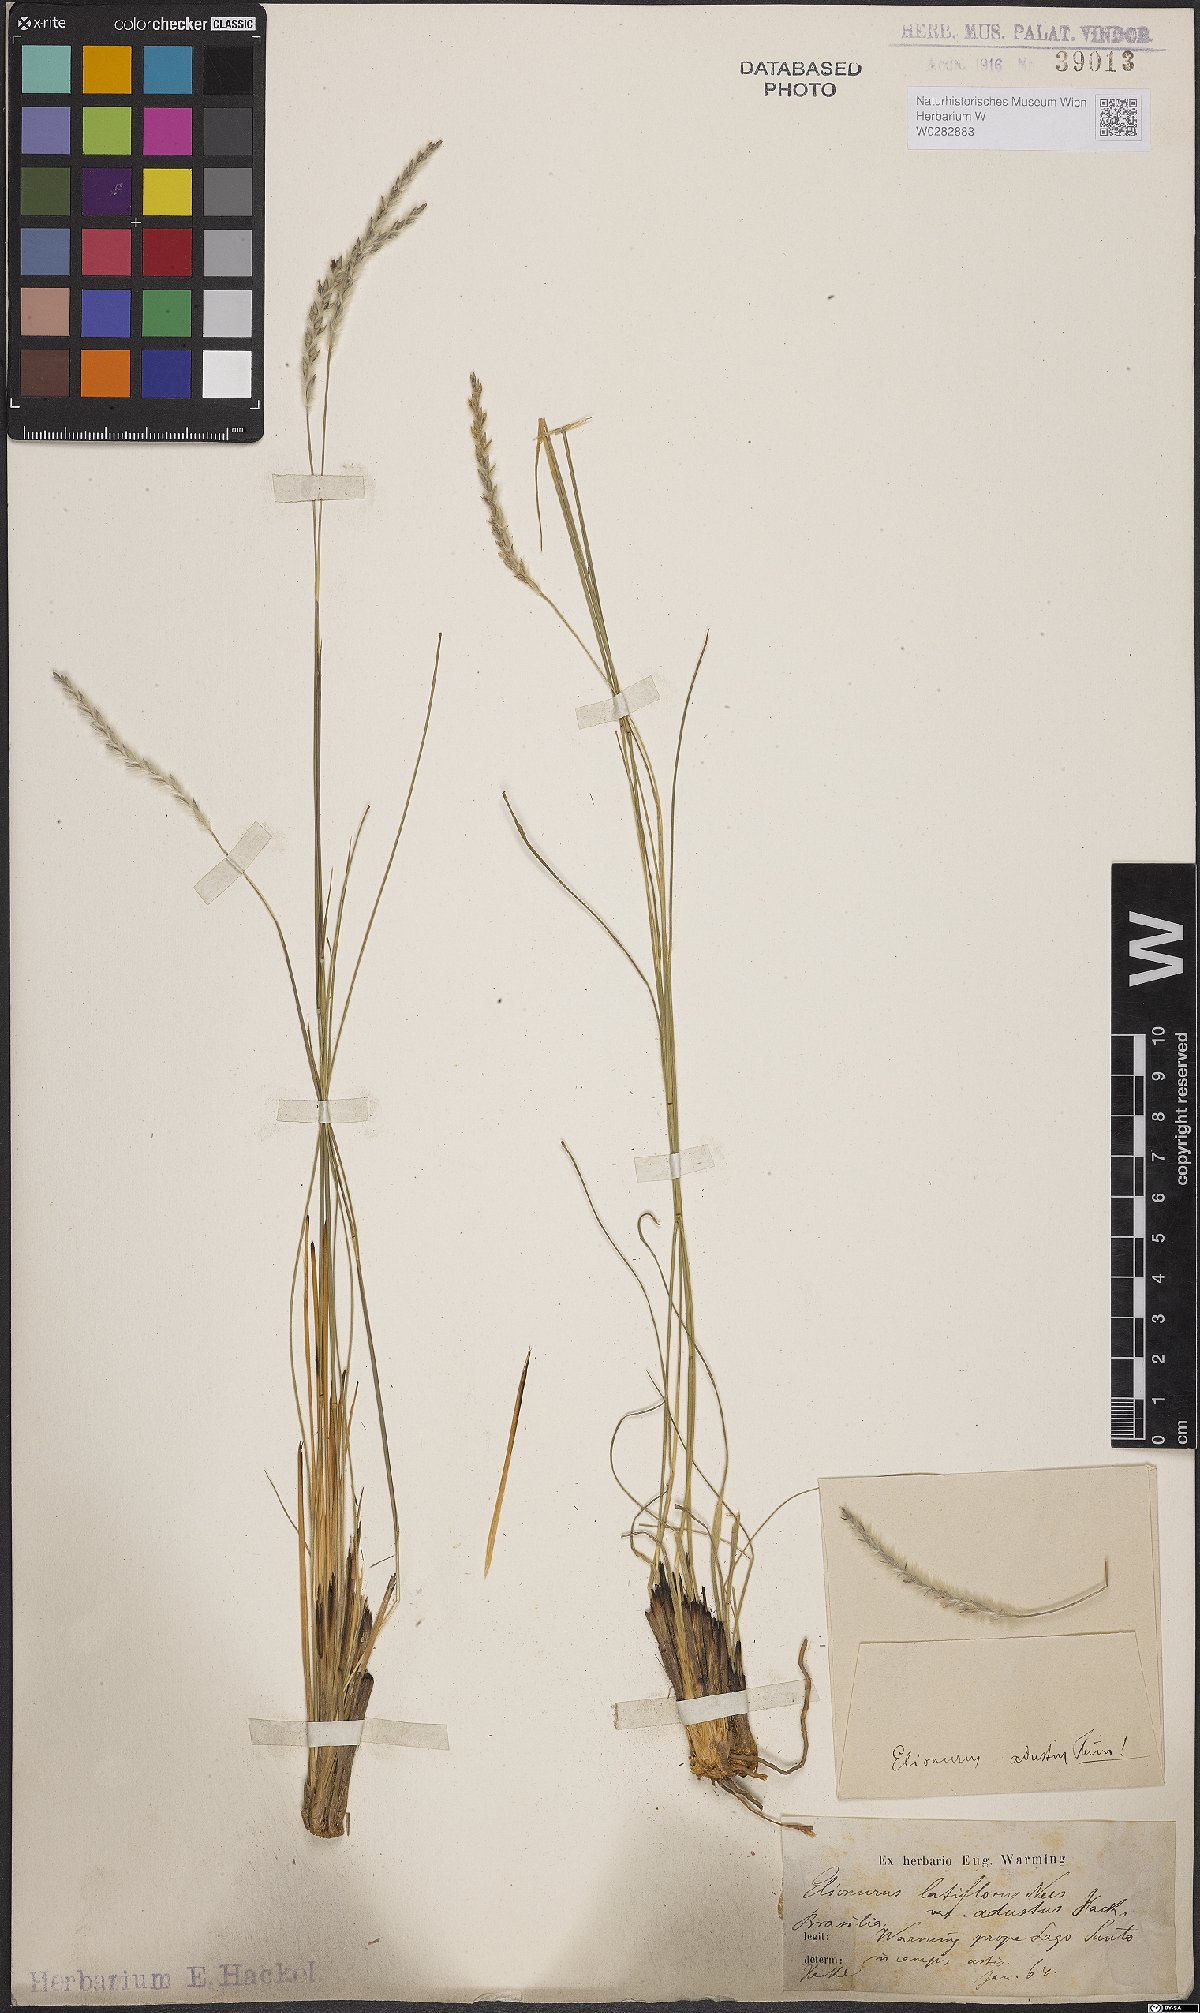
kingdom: Plantae
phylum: Tracheophyta
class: Liliopsida
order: Poales
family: Poaceae
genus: Elionurus
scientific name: Elionurus muticus
